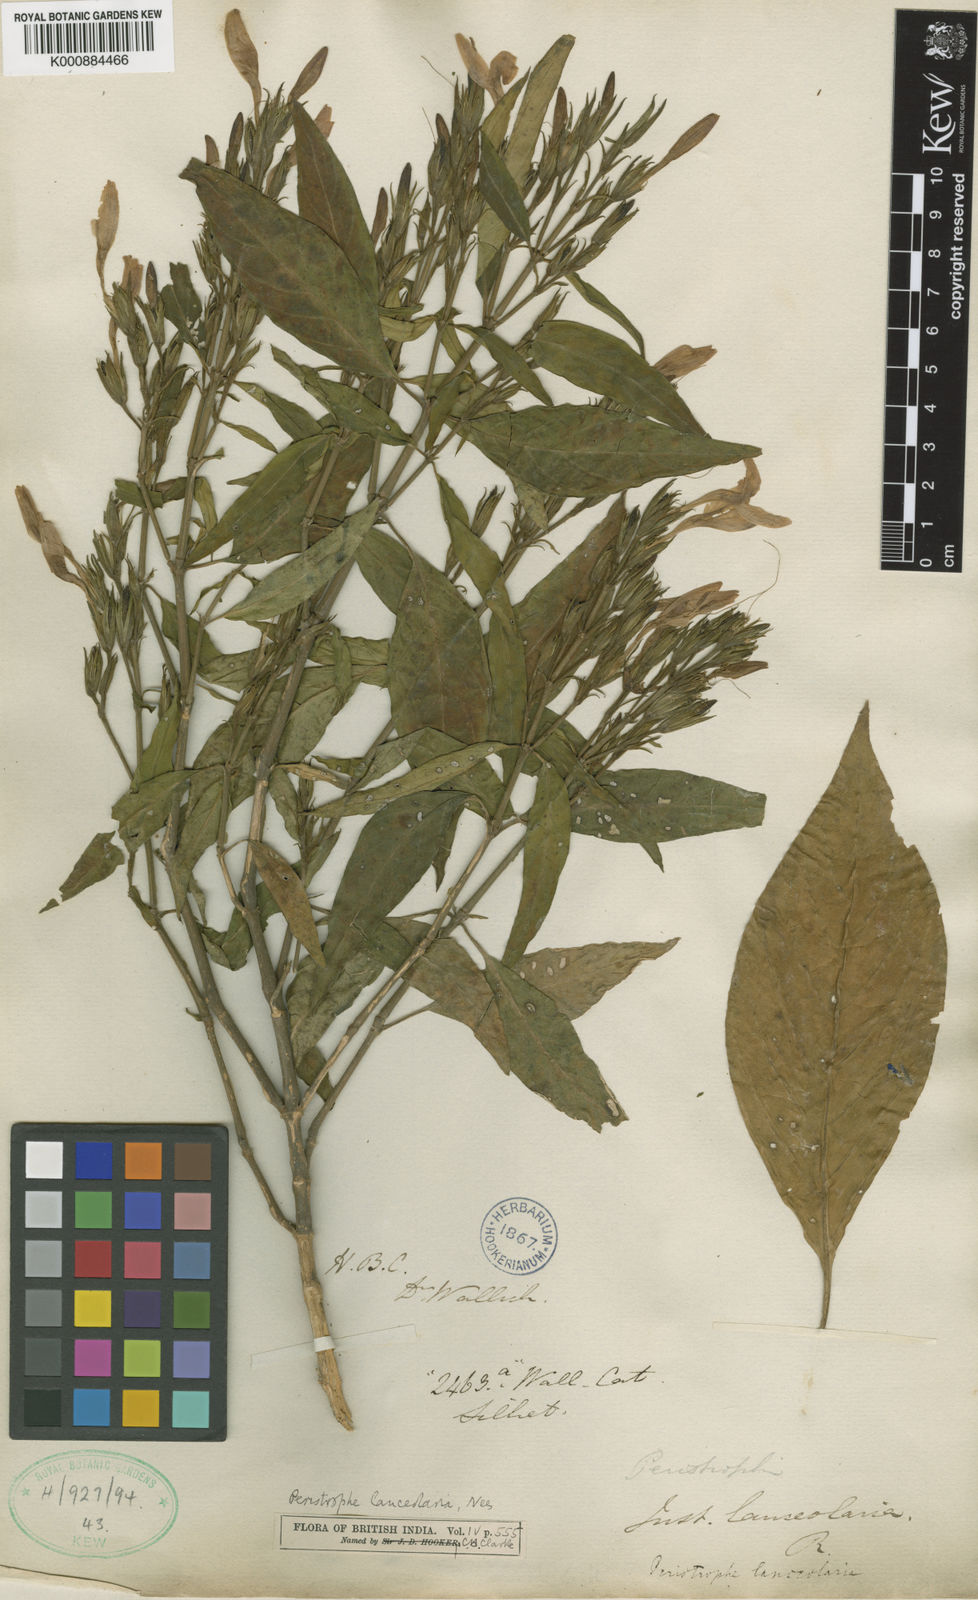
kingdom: Plantae
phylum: Tracheophyta
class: Magnoliopsida
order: Lamiales
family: Acanthaceae
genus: Dicliptera
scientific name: Dicliptera lanceolaria
